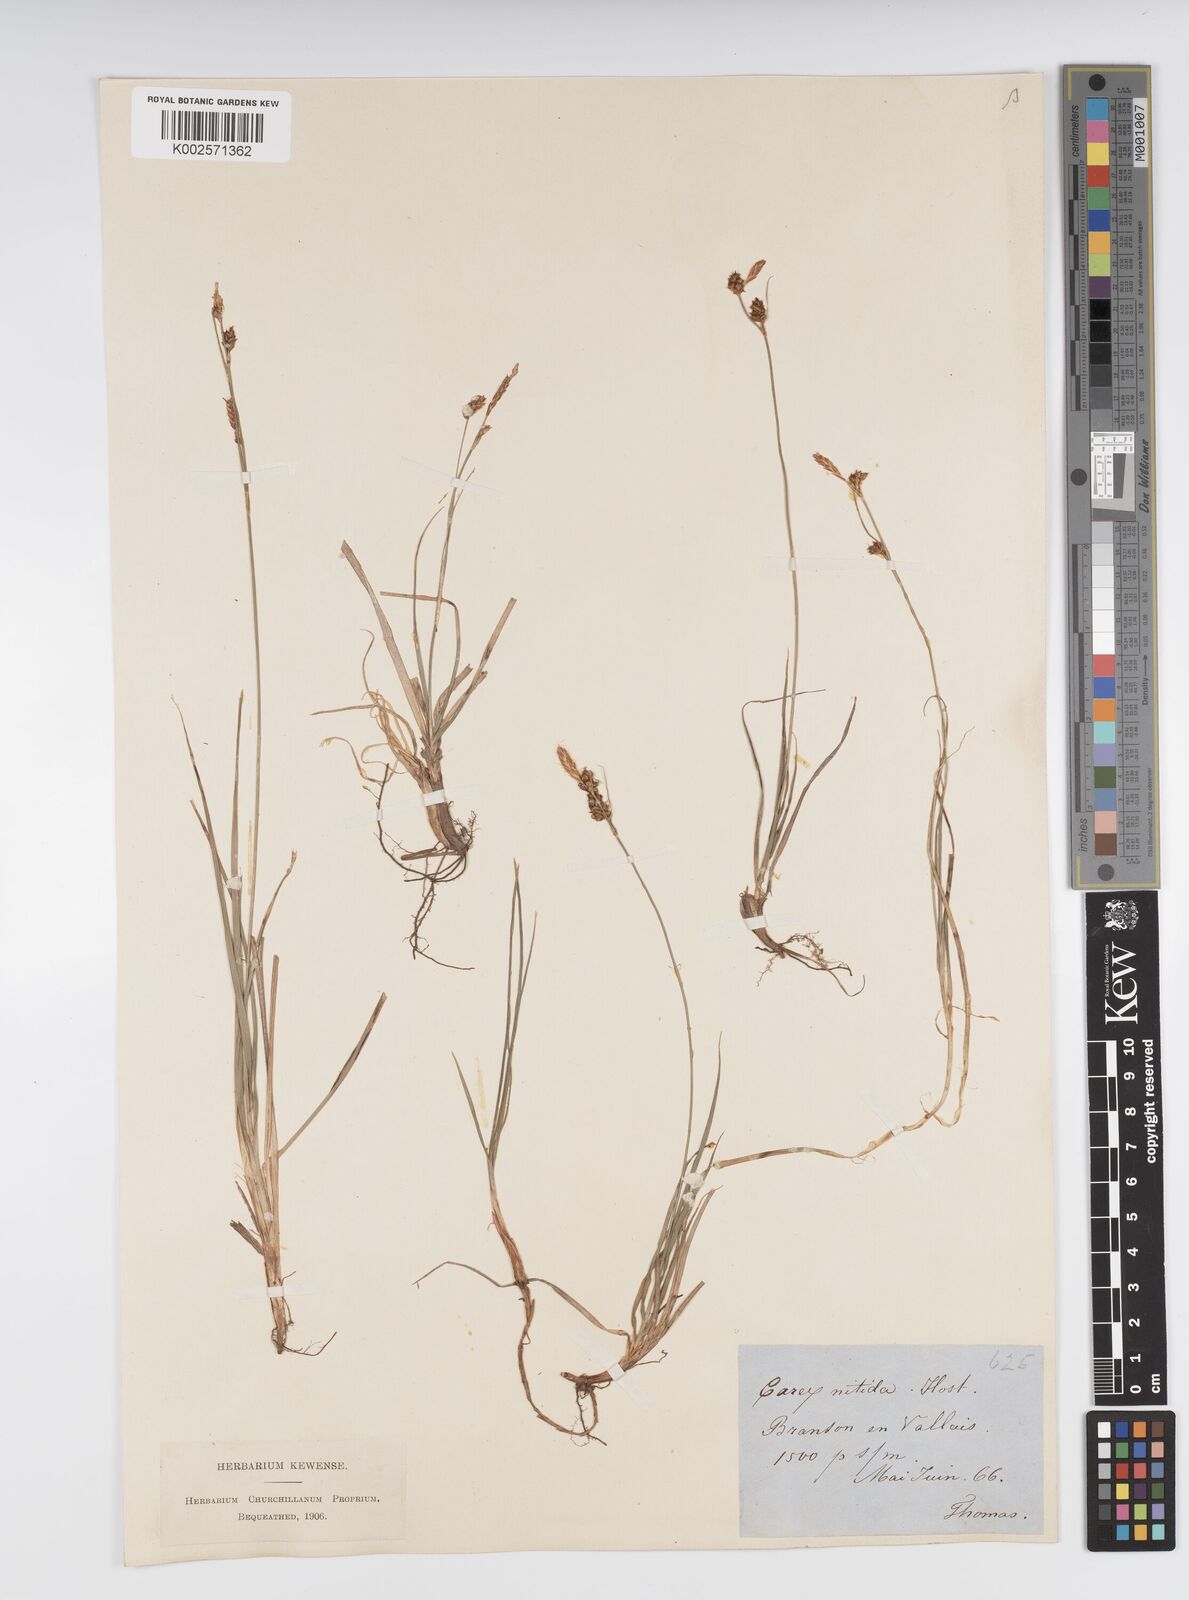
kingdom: Plantae
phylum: Tracheophyta
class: Liliopsida
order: Poales
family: Cyperaceae
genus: Carex
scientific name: Carex liparocarpos
